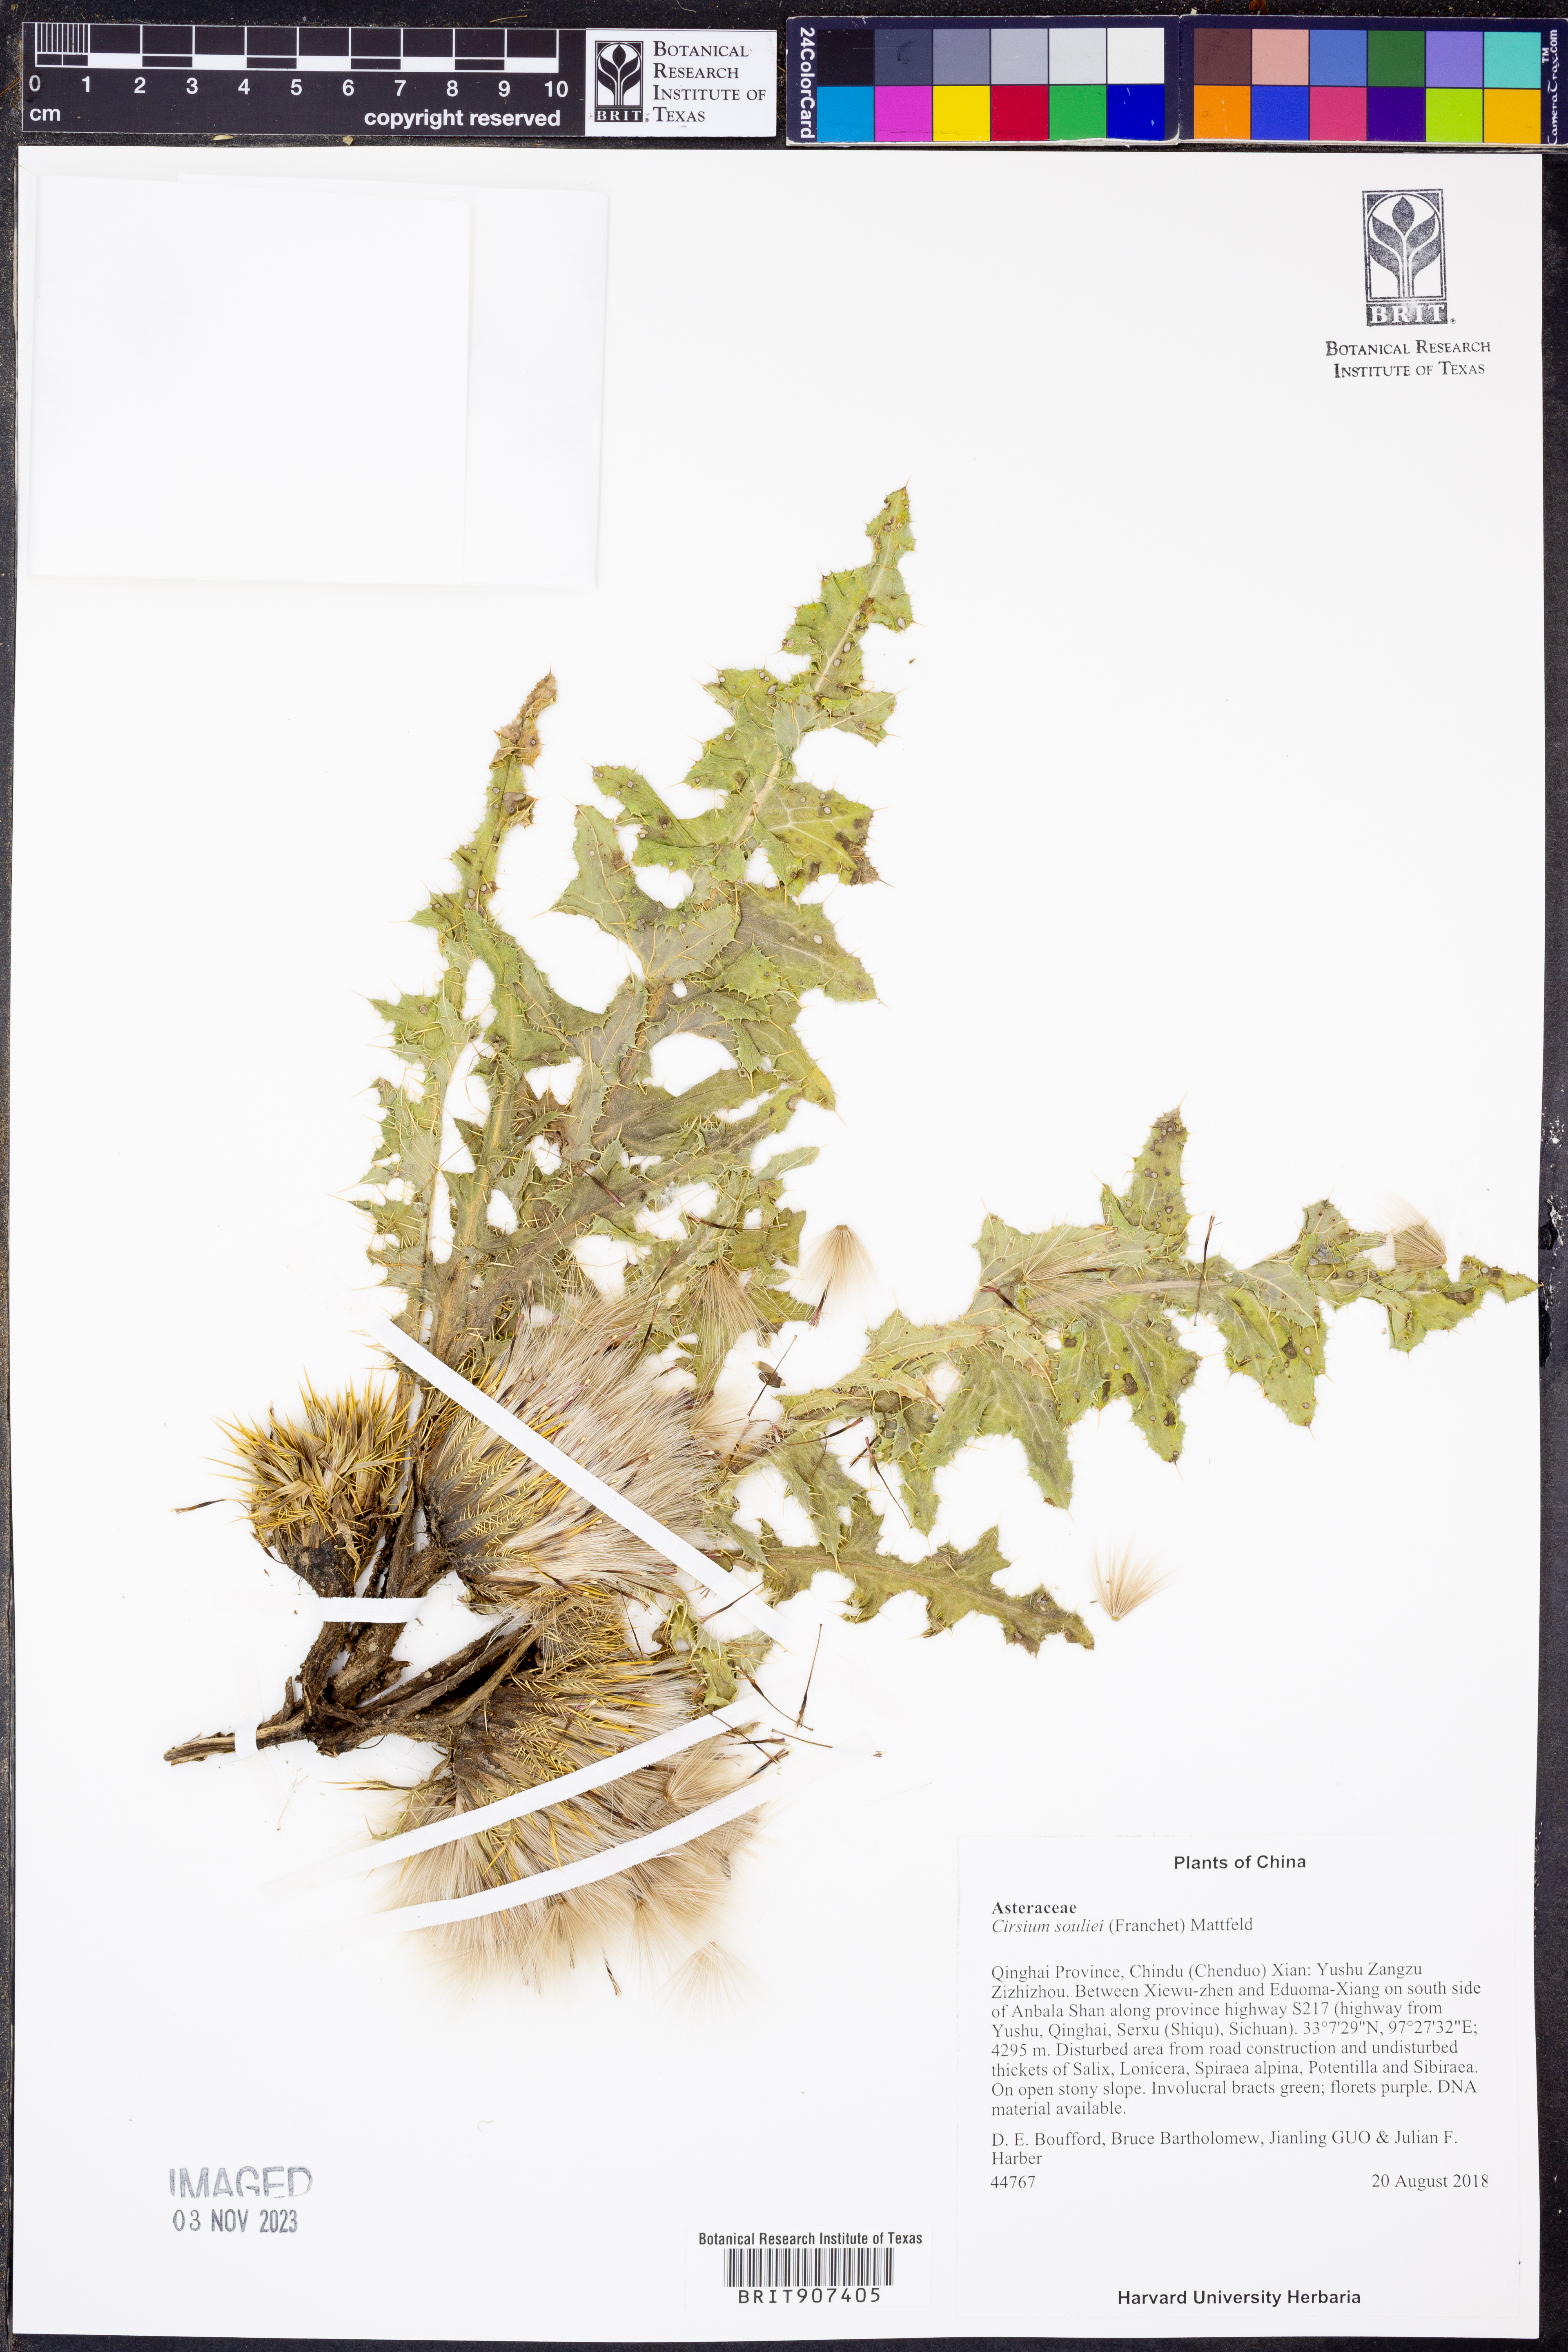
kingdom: Plantae
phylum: Tracheophyta
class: Magnoliopsida
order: Asterales
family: Asteraceae
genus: Cirsium
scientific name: Cirsium souliei
